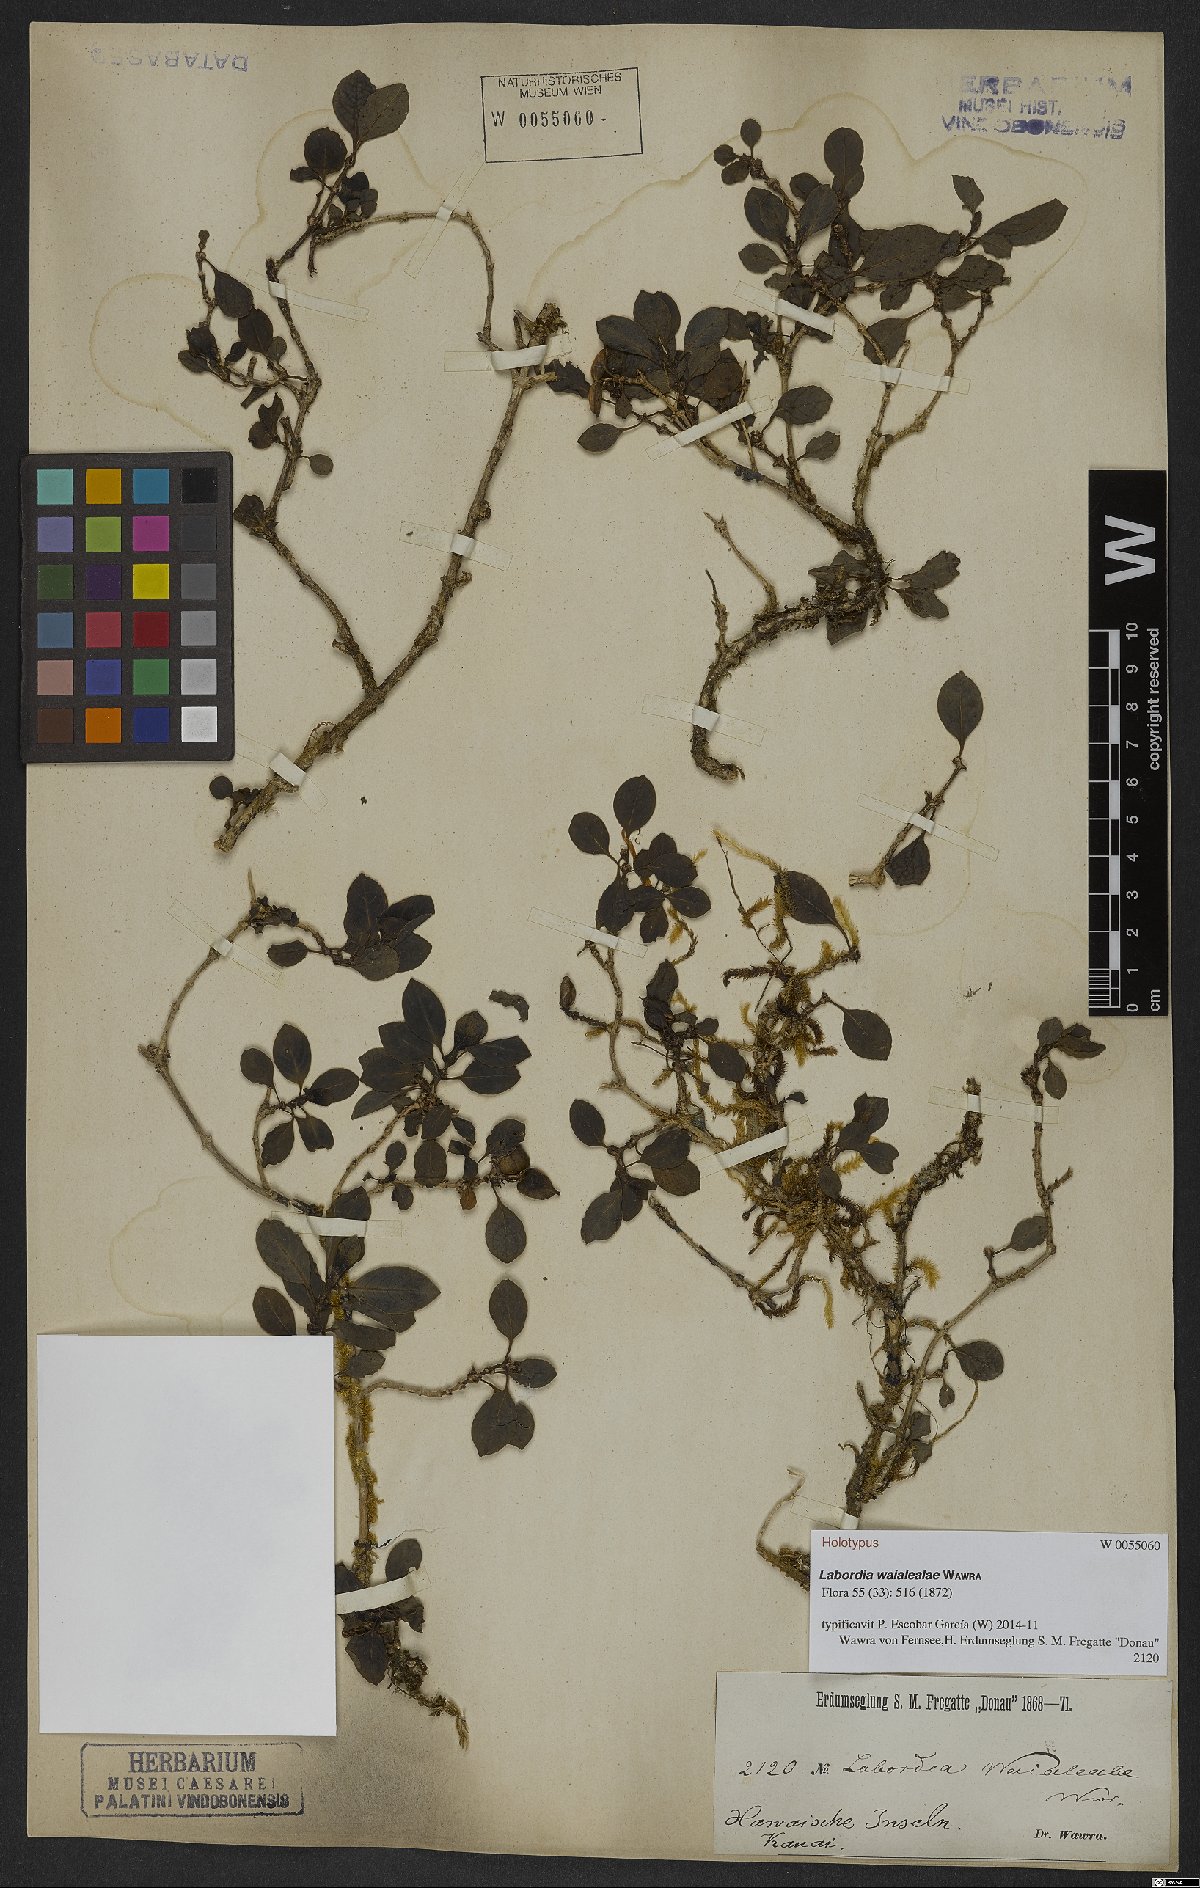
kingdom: Plantae
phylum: Tracheophyta
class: Magnoliopsida
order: Gentianales
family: Loganiaceae
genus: Geniostoma
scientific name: Geniostoma waialealae
